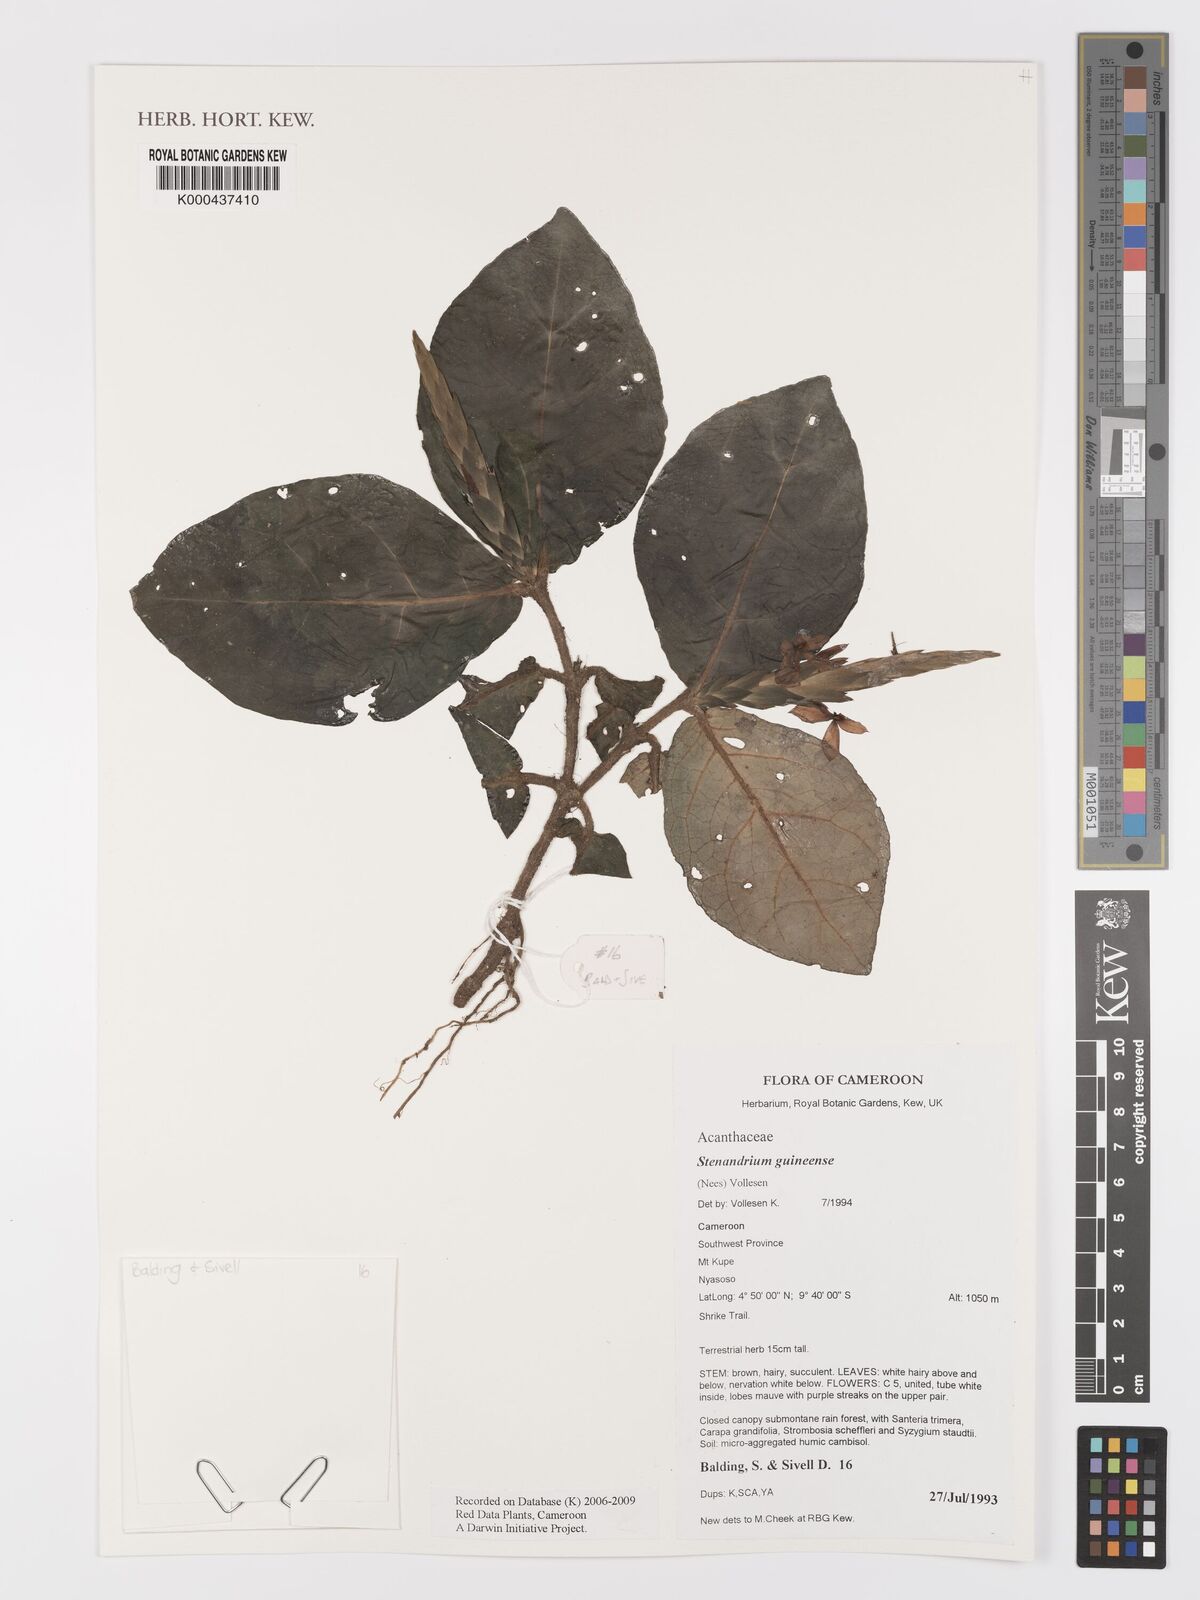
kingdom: Plantae
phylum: Tracheophyta
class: Magnoliopsida
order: Lamiales
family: Acanthaceae
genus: Stenandriopsis
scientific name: Stenandriopsis guineensis
